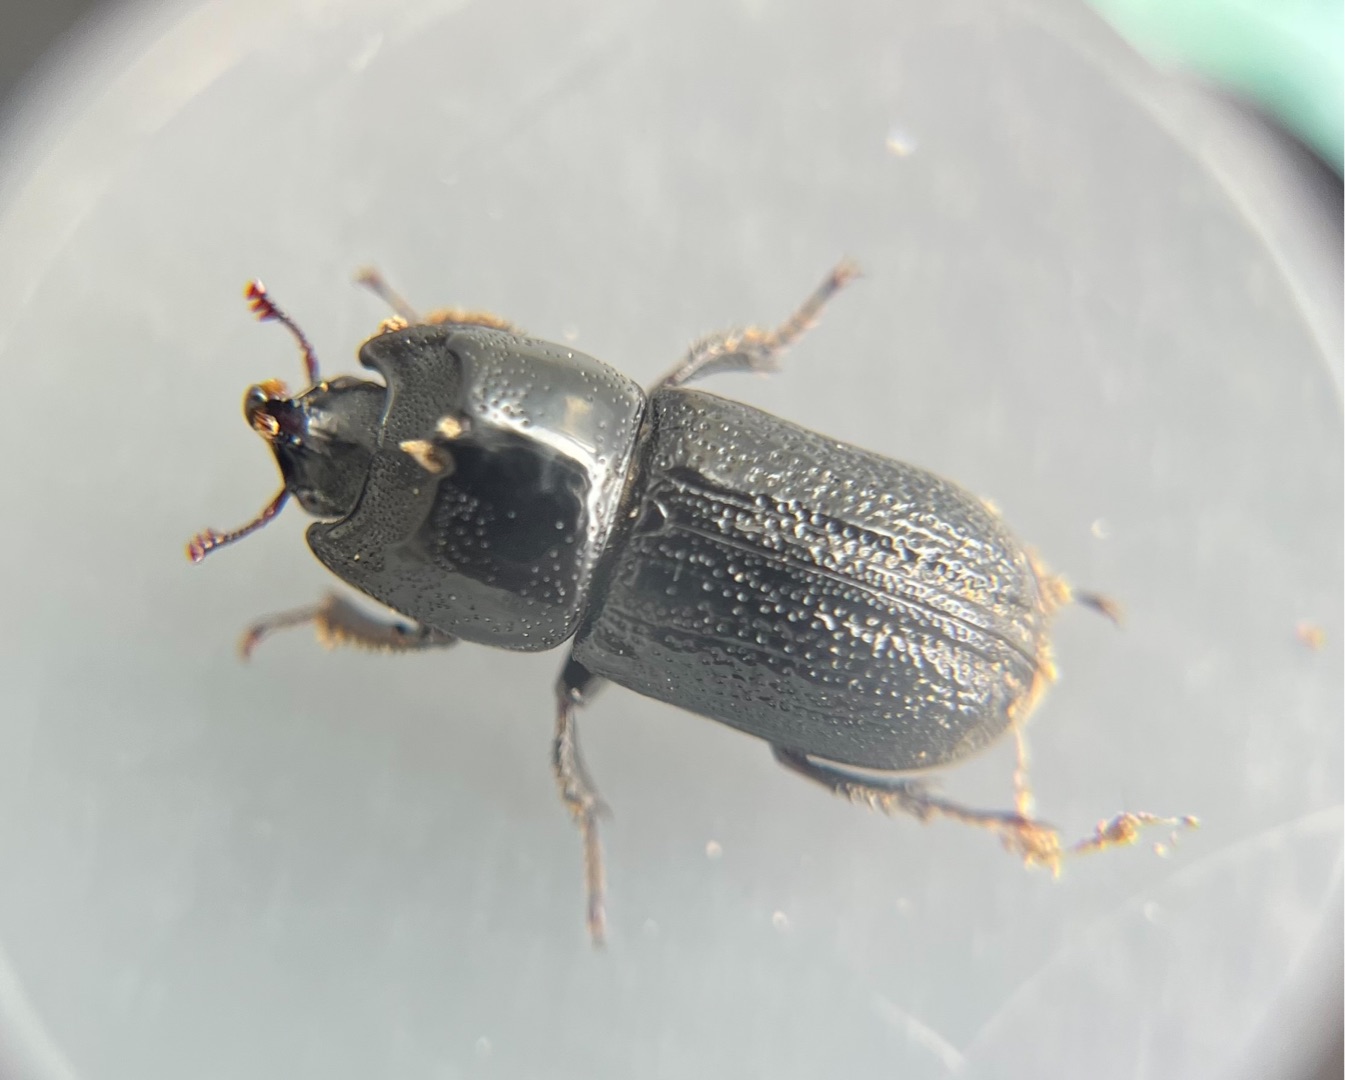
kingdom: Animalia
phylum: Arthropoda
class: Insecta
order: Coleoptera
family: Lucanidae
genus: Sinodendron
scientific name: Sinodendron cylindricum
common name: Valsehjort
